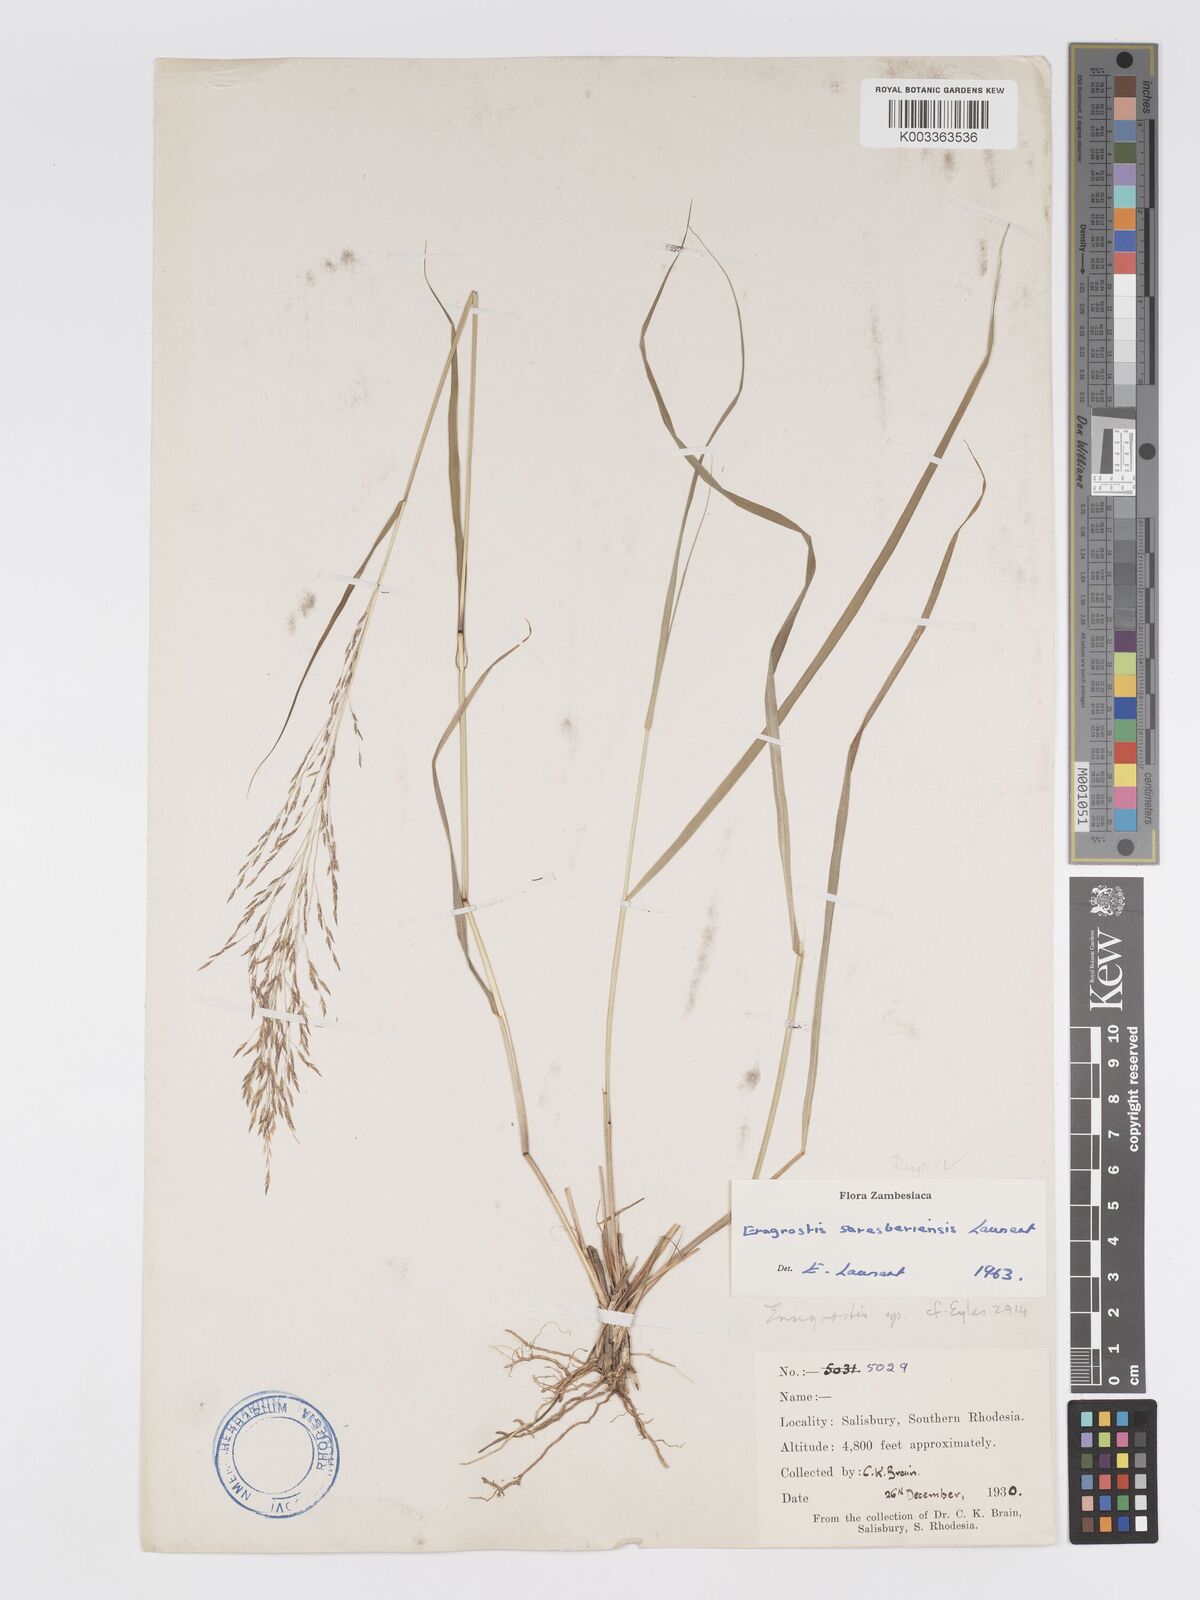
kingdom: Plantae
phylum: Tracheophyta
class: Liliopsida
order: Poales
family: Poaceae
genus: Eragrostis
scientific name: Eragrostis saresberiensis
